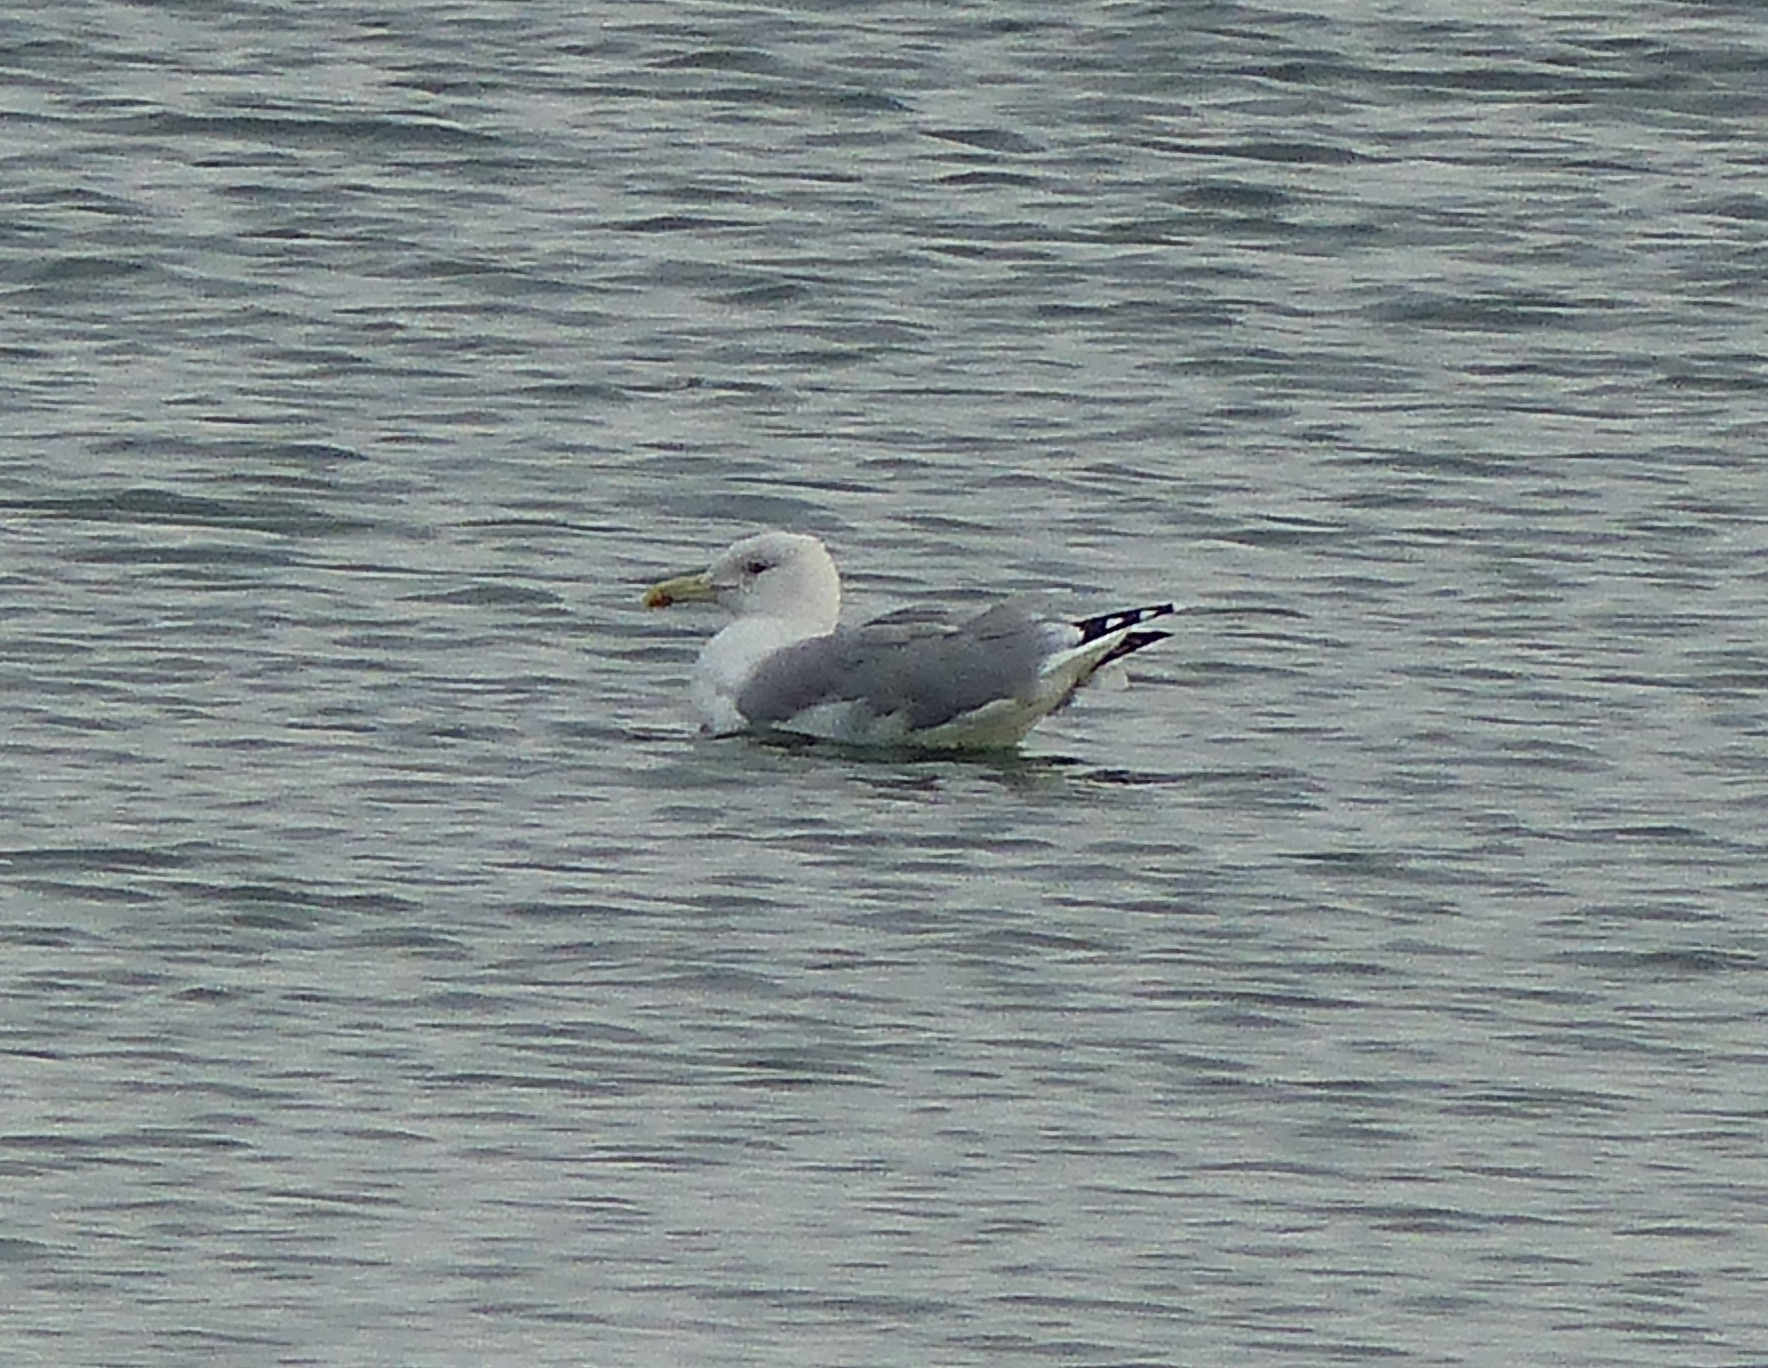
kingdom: Animalia
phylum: Chordata
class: Aves
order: Charadriiformes
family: Laridae
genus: Larus
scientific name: Larus cachinnans
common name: Kaspisk måge
